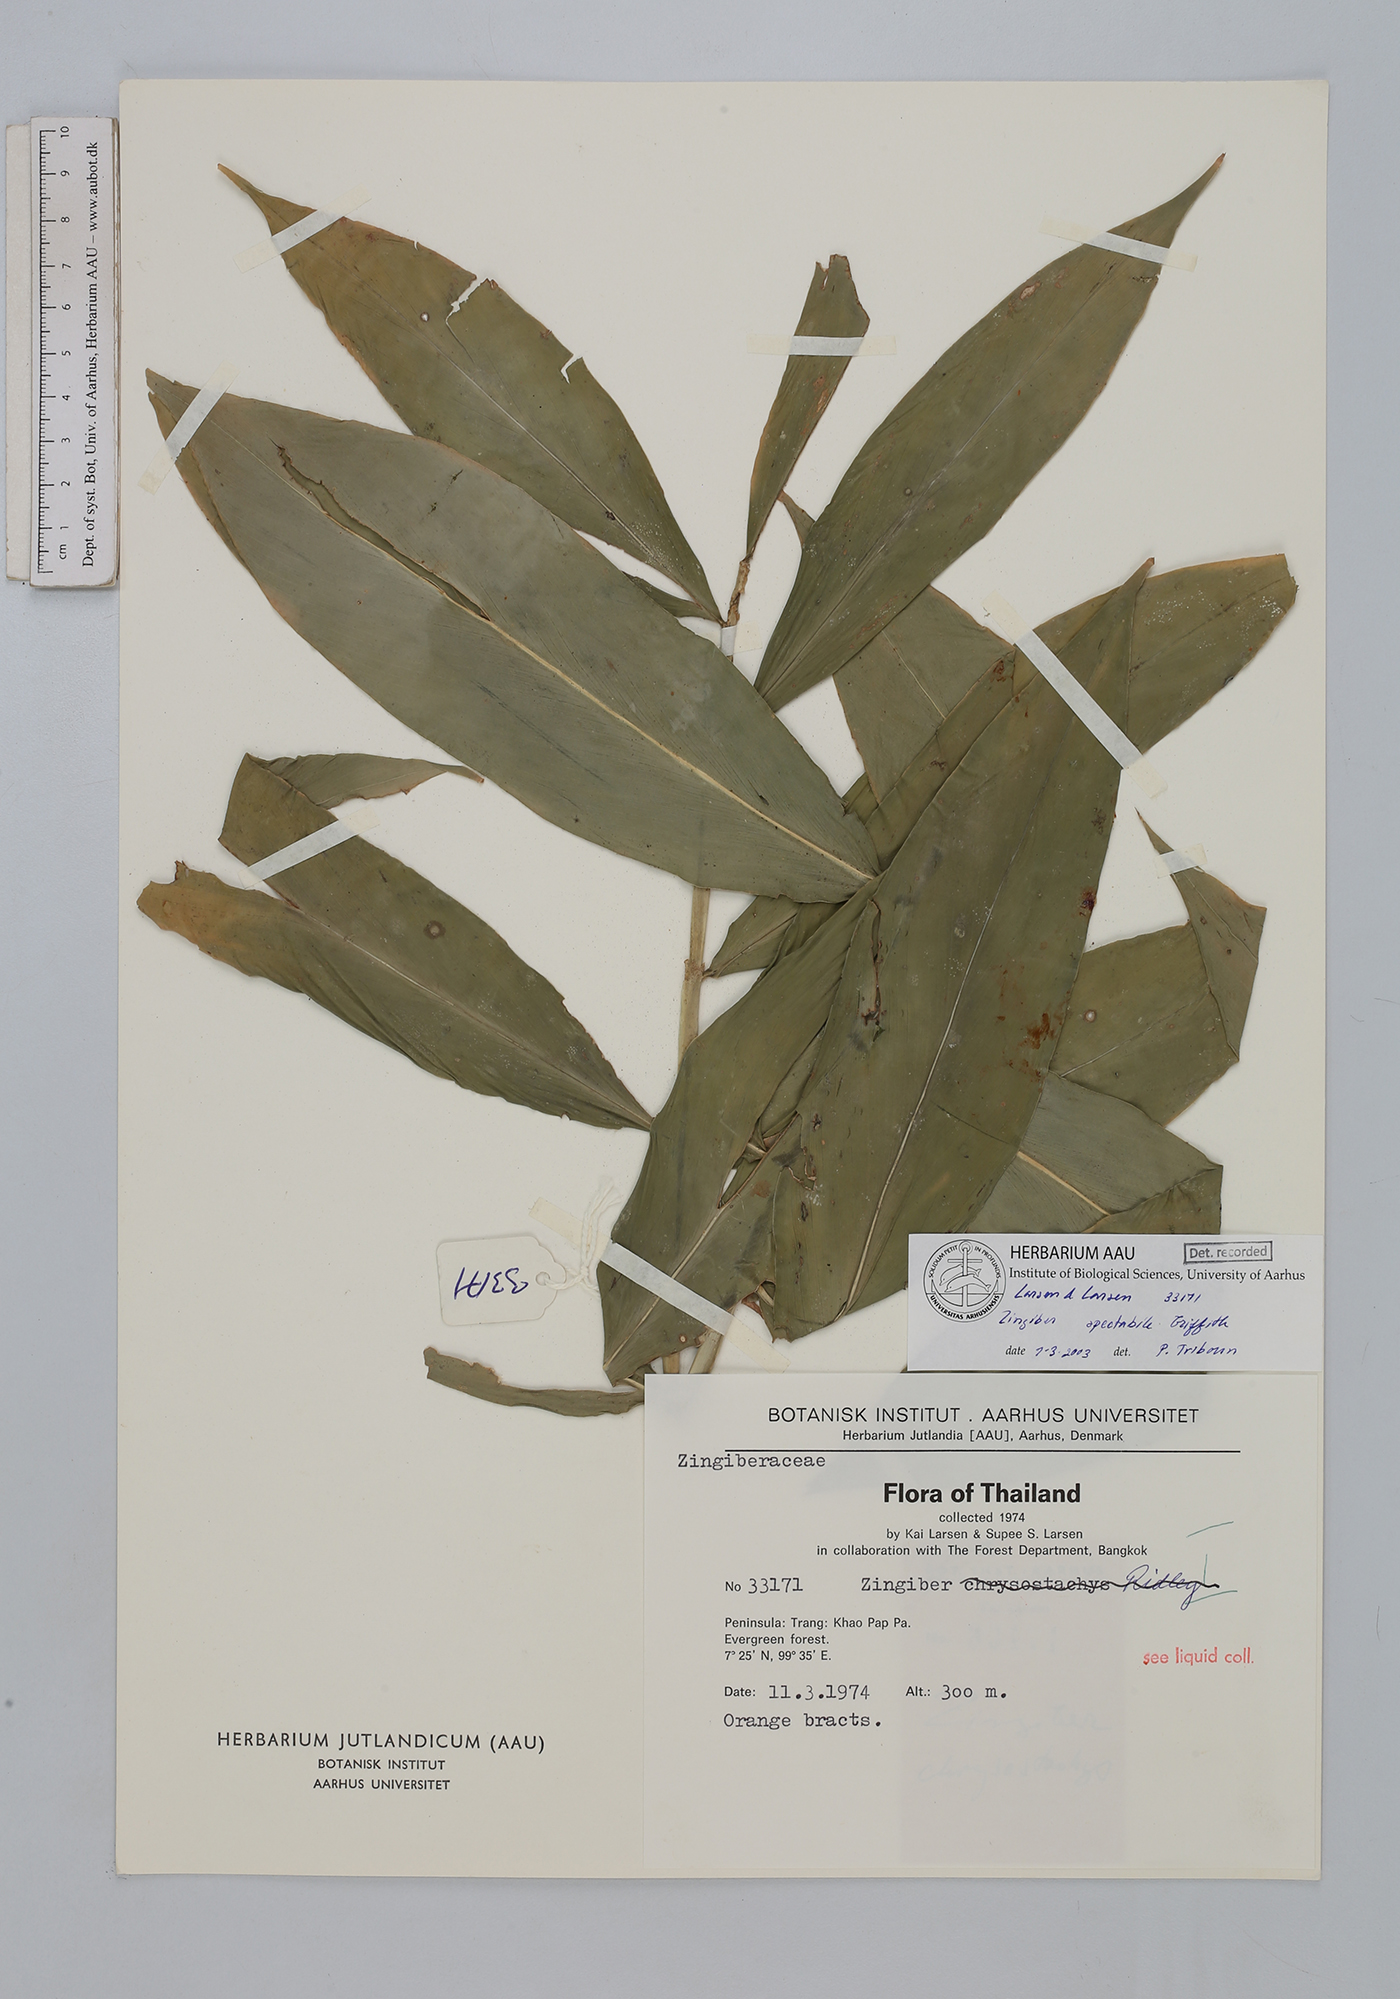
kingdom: Plantae
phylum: Tracheophyta
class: Liliopsida
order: Zingiberales
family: Zingiberaceae
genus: Zingiber
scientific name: Zingiber spectabile
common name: Beehive ginger
